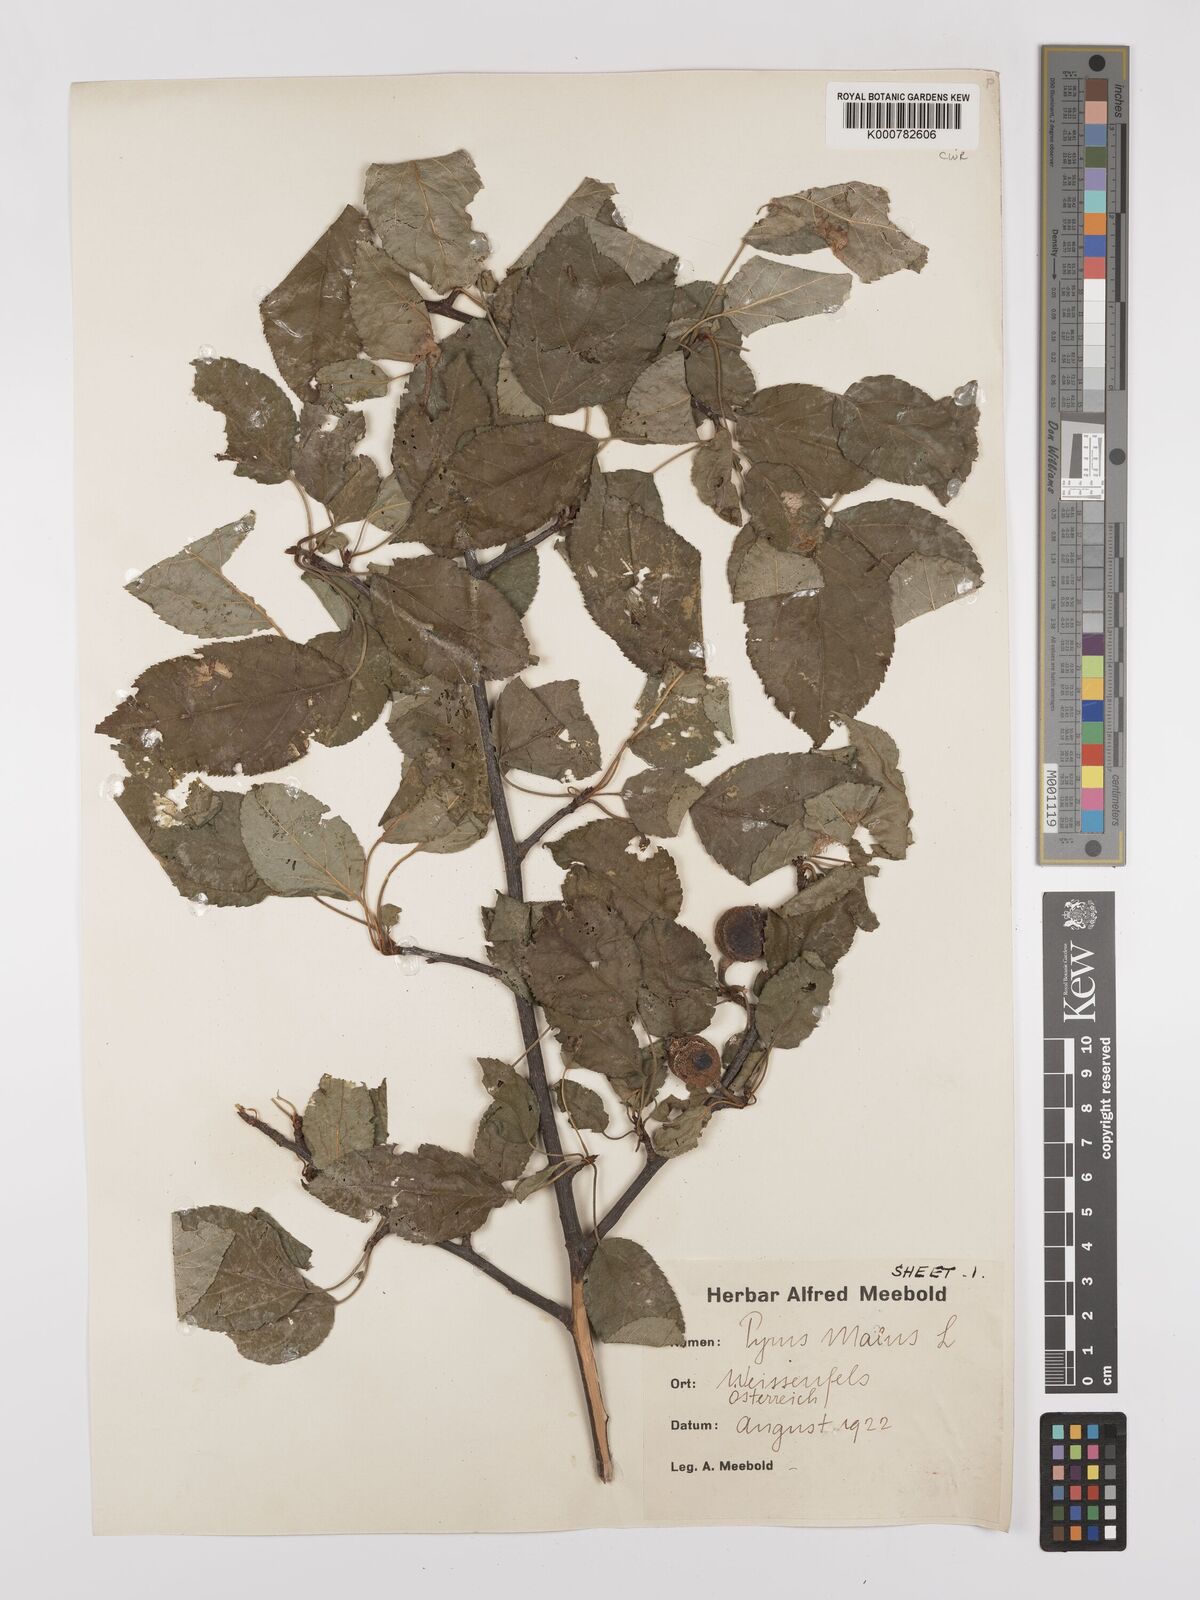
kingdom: Plantae
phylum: Tracheophyta
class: Magnoliopsida
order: Rosales
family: Rosaceae
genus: Malus
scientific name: Malus domestica
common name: Apple
